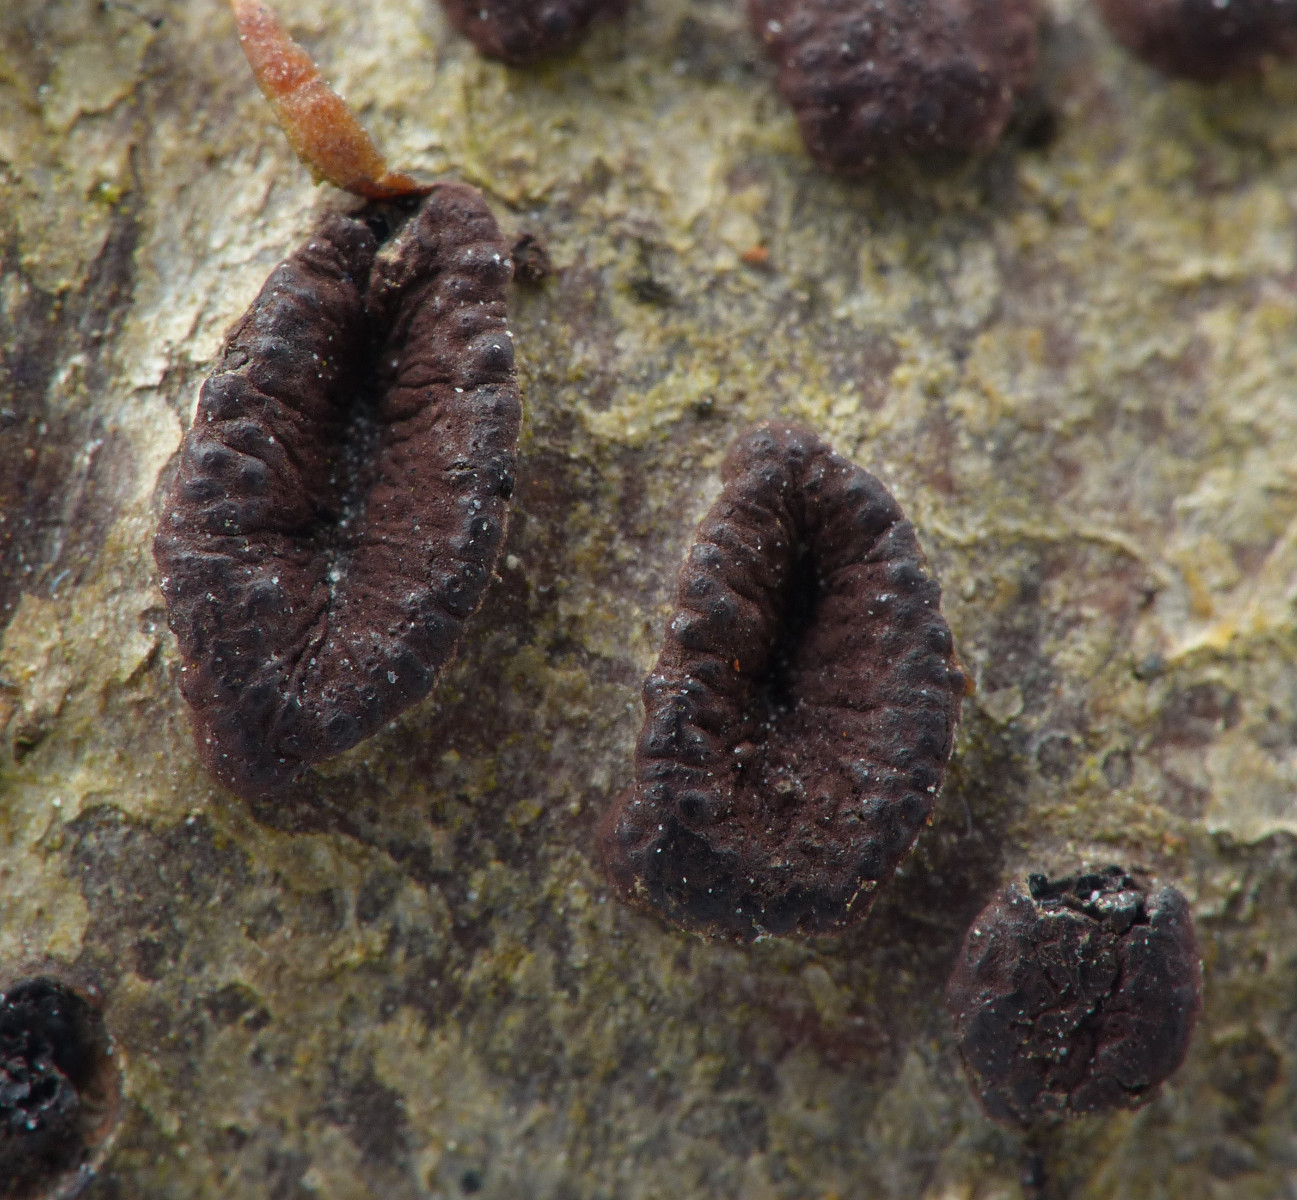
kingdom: Fungi
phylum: Ascomycota
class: Sordariomycetes
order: Xylariales
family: Hypoxylaceae
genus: Jackrogersella
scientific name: Jackrogersella multiformis
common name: foranderlig kulbær
